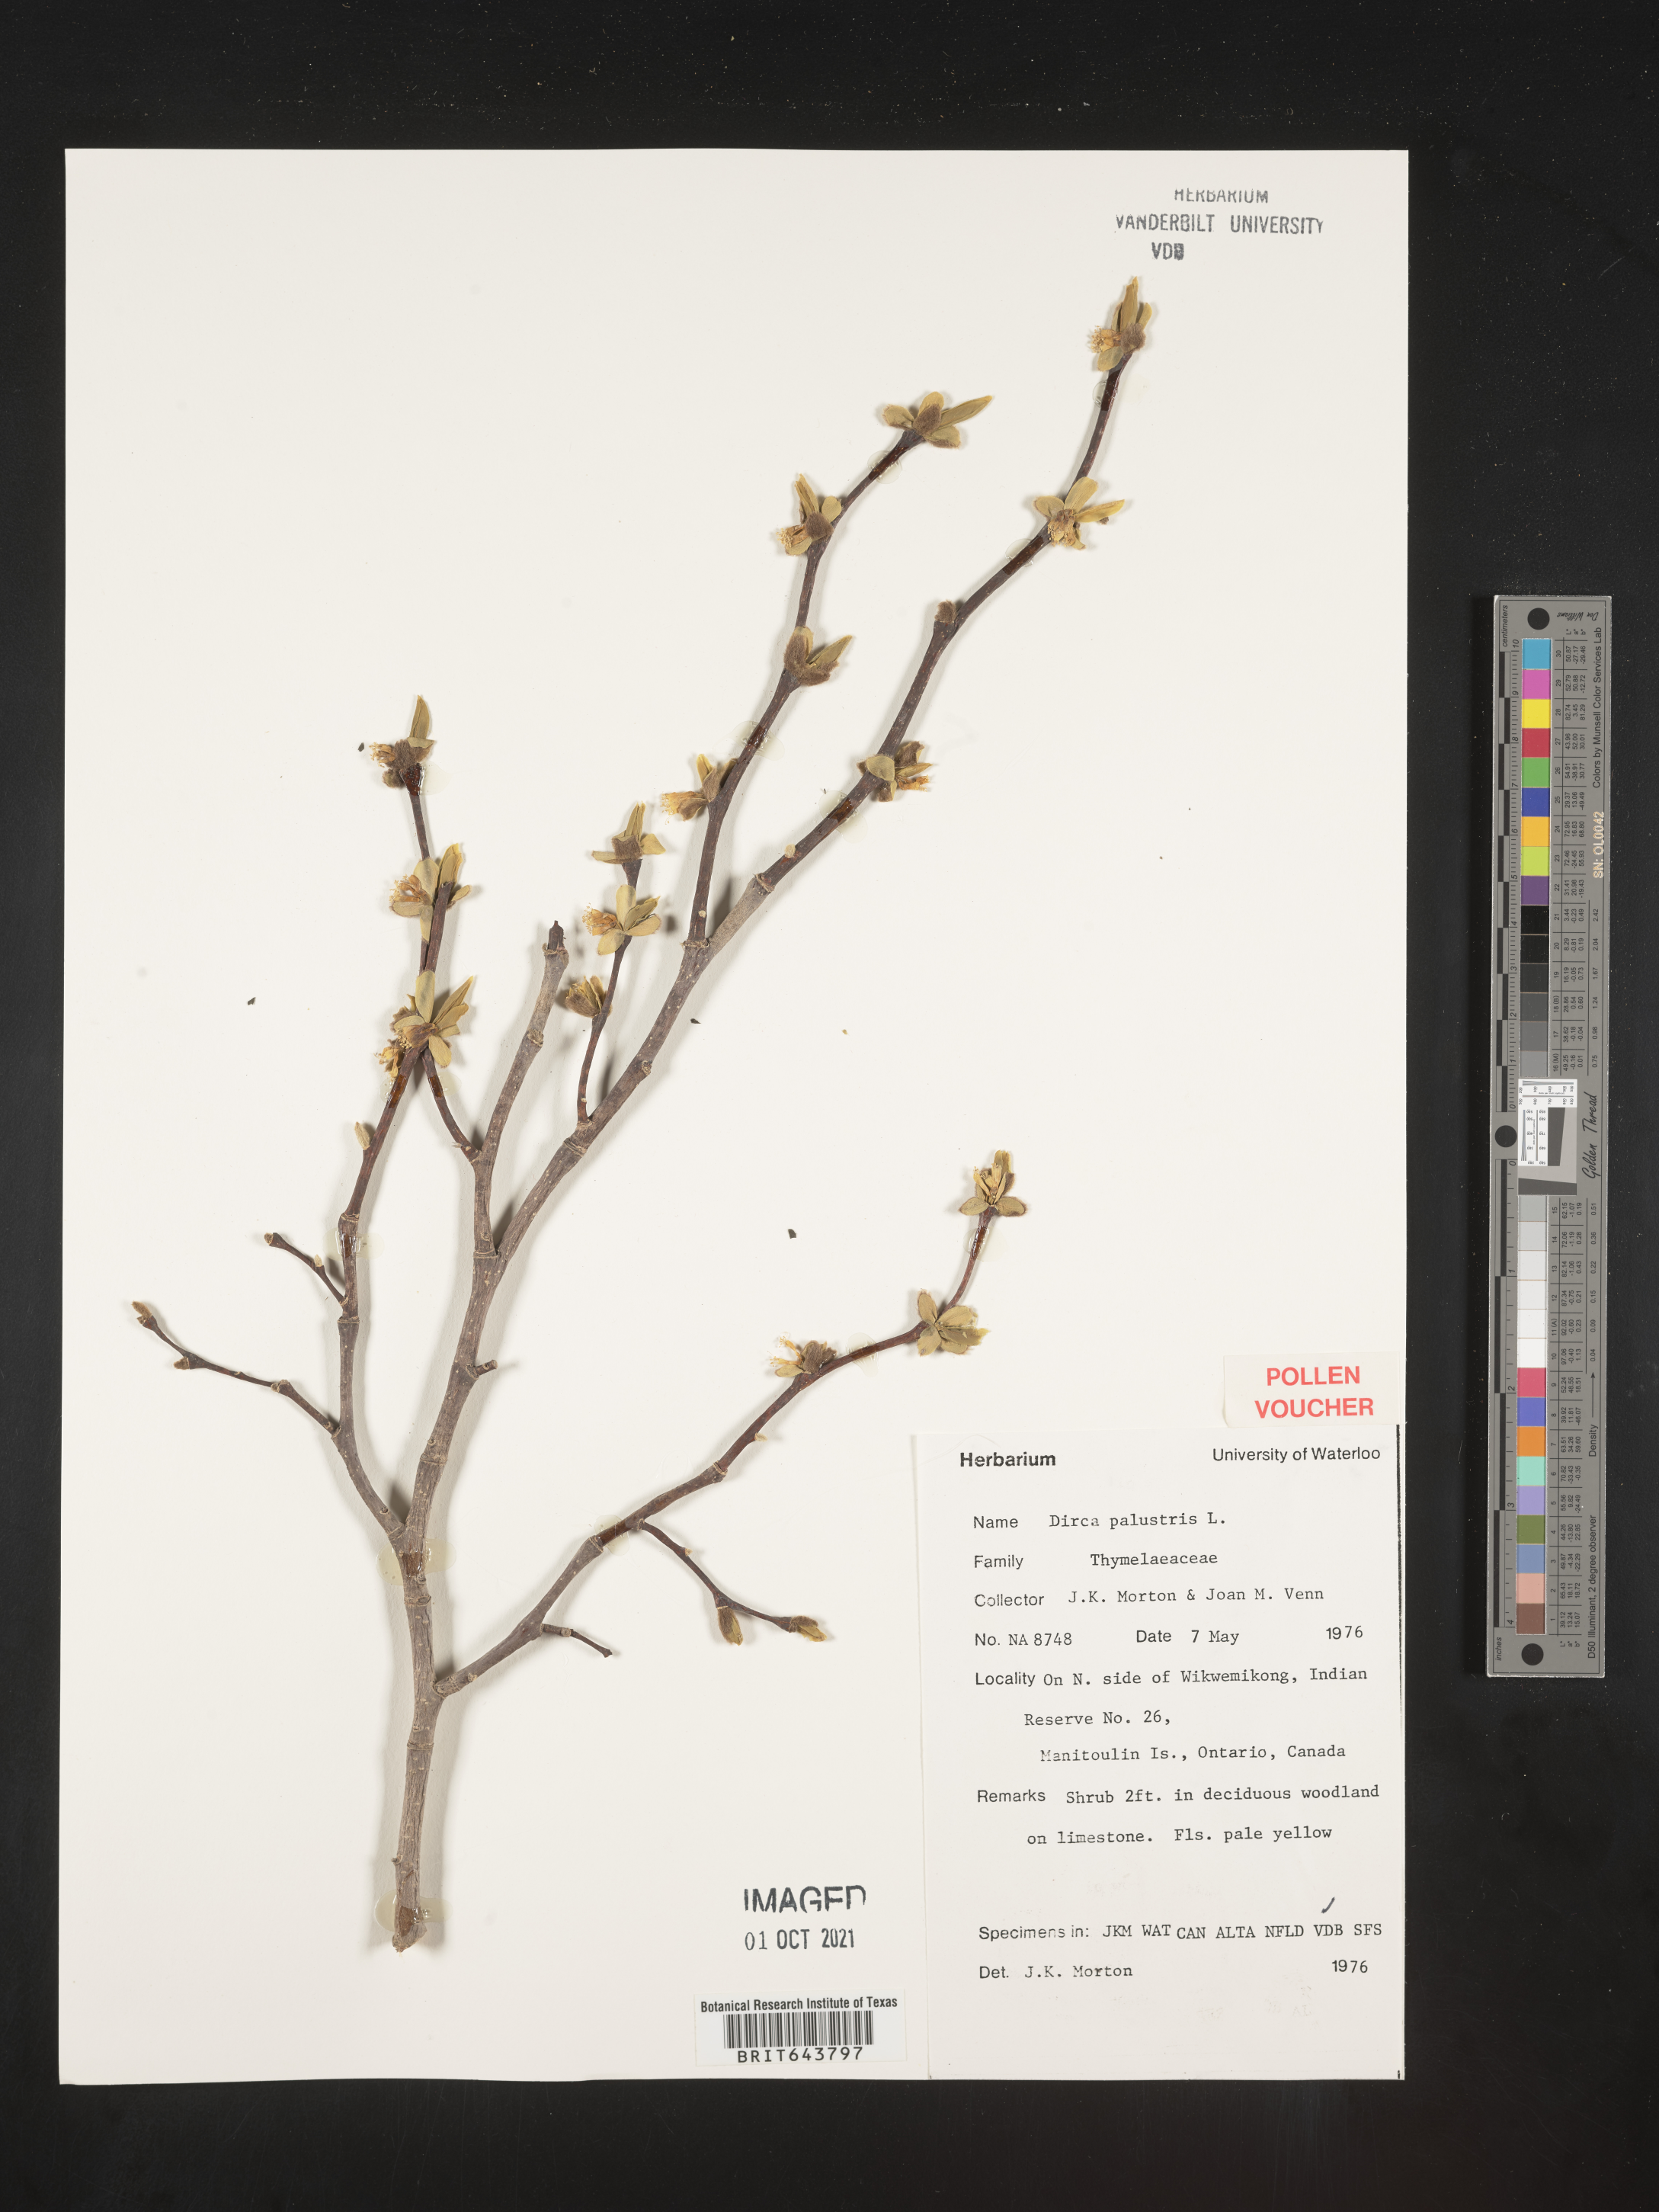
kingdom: Plantae
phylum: Tracheophyta
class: Magnoliopsida
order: Malvales
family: Thymelaeaceae
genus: Dirca
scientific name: Dirca
